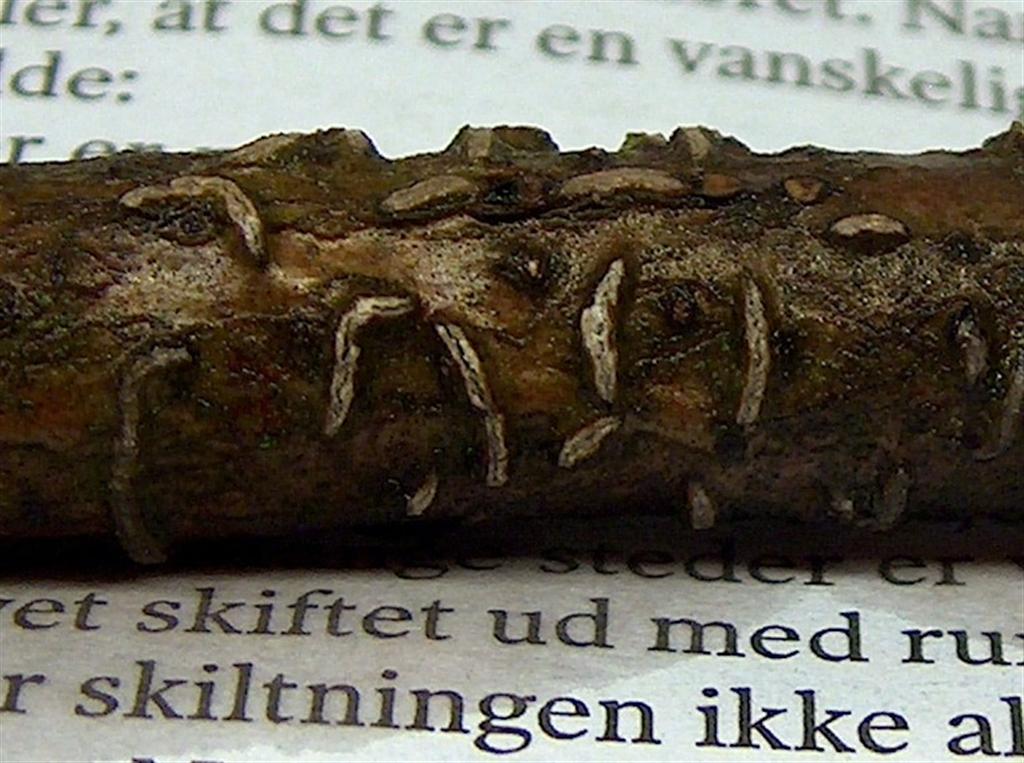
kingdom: Fungi
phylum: Ascomycota
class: Leotiomycetes
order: Rhytismatales
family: Rhytismataceae
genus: Colpoma
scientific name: Colpoma quercinum
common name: ege-sprækkeskive
